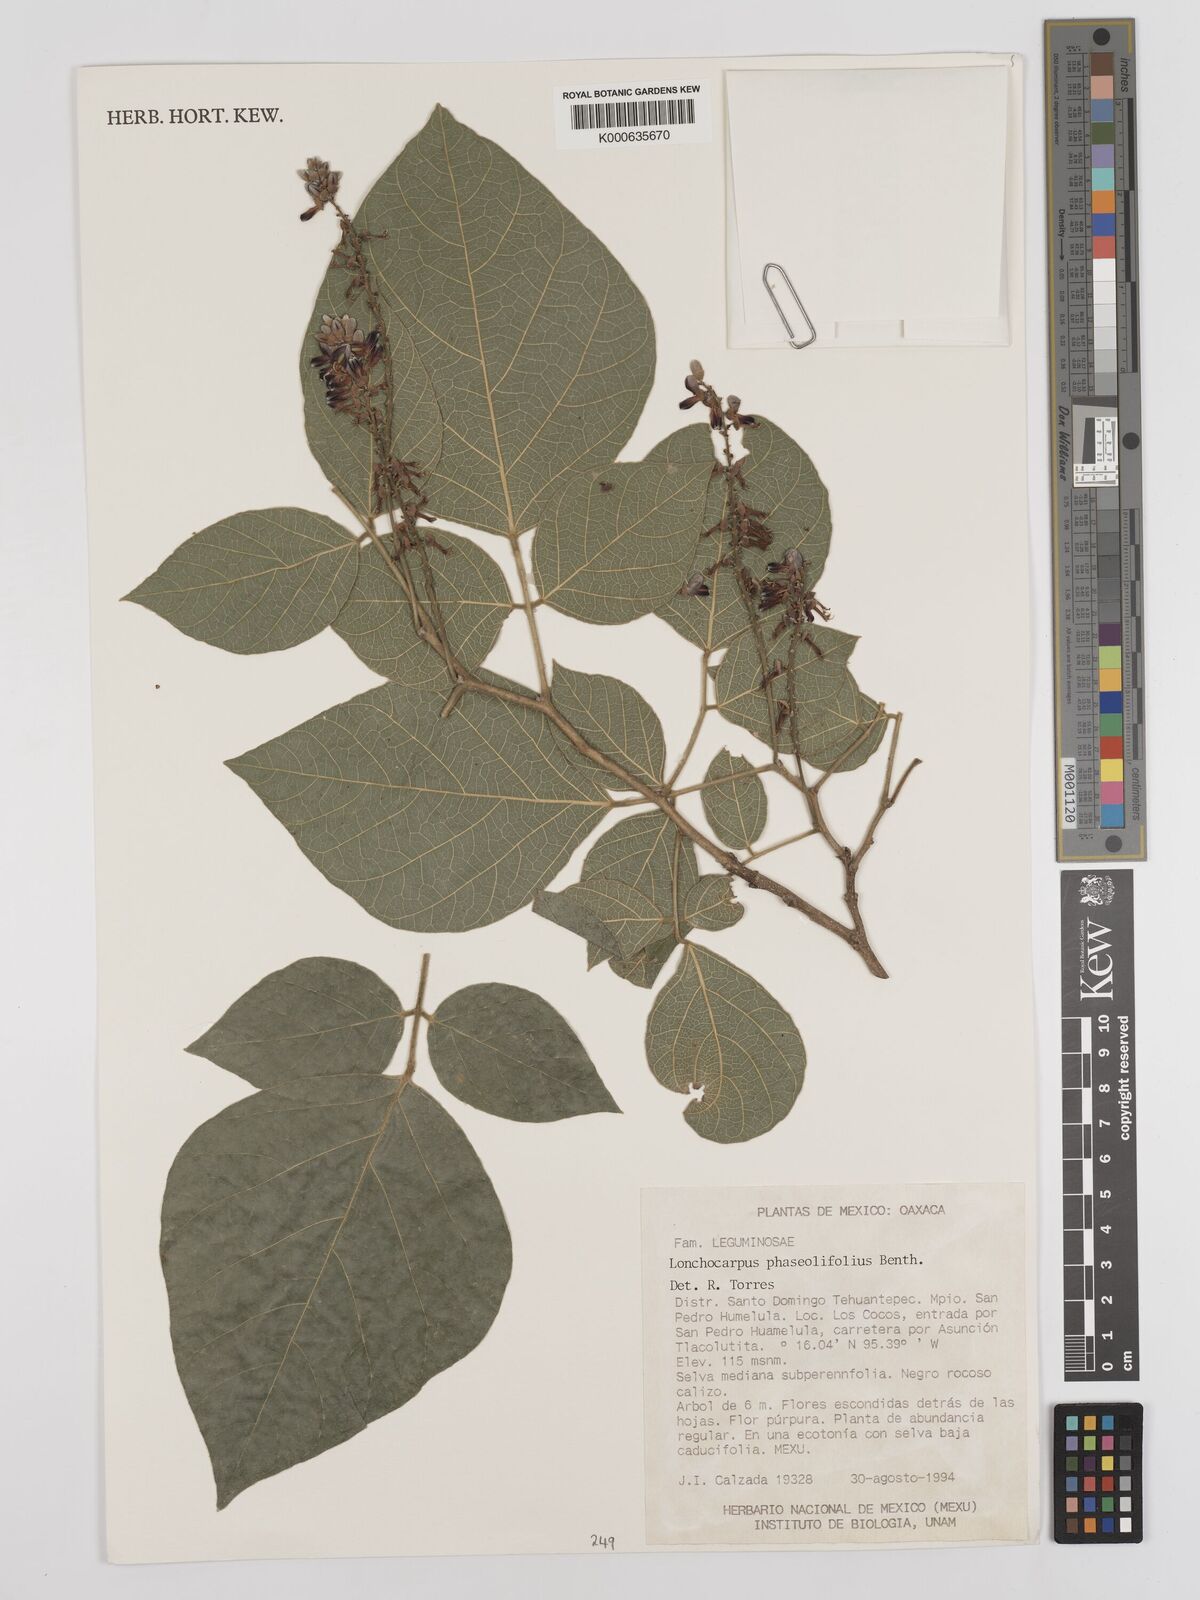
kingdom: Plantae
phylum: Tracheophyta
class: Magnoliopsida
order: Fabales
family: Fabaceae
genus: Lonchocarpus
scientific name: Lonchocarpus phaseolifolius
